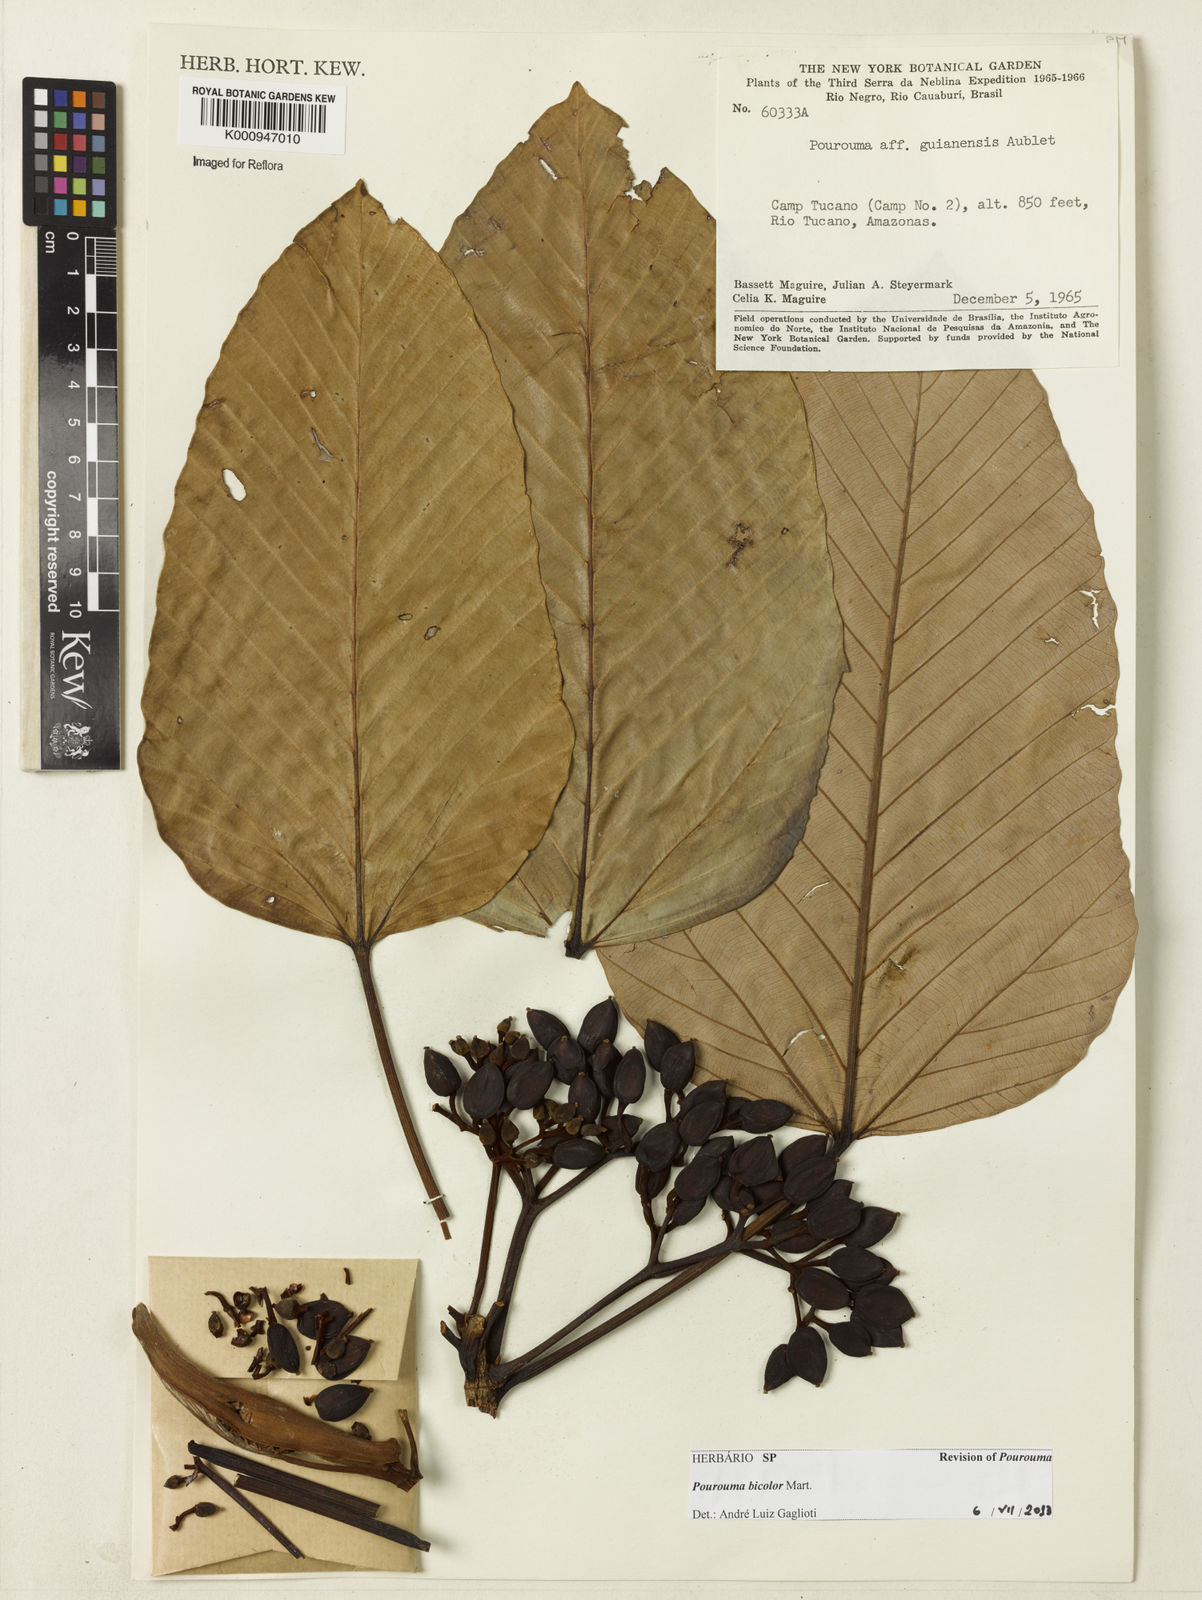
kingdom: Plantae
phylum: Tracheophyta
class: Magnoliopsida
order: Rosales
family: Urticaceae
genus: Pourouma
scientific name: Pourouma bicolor
